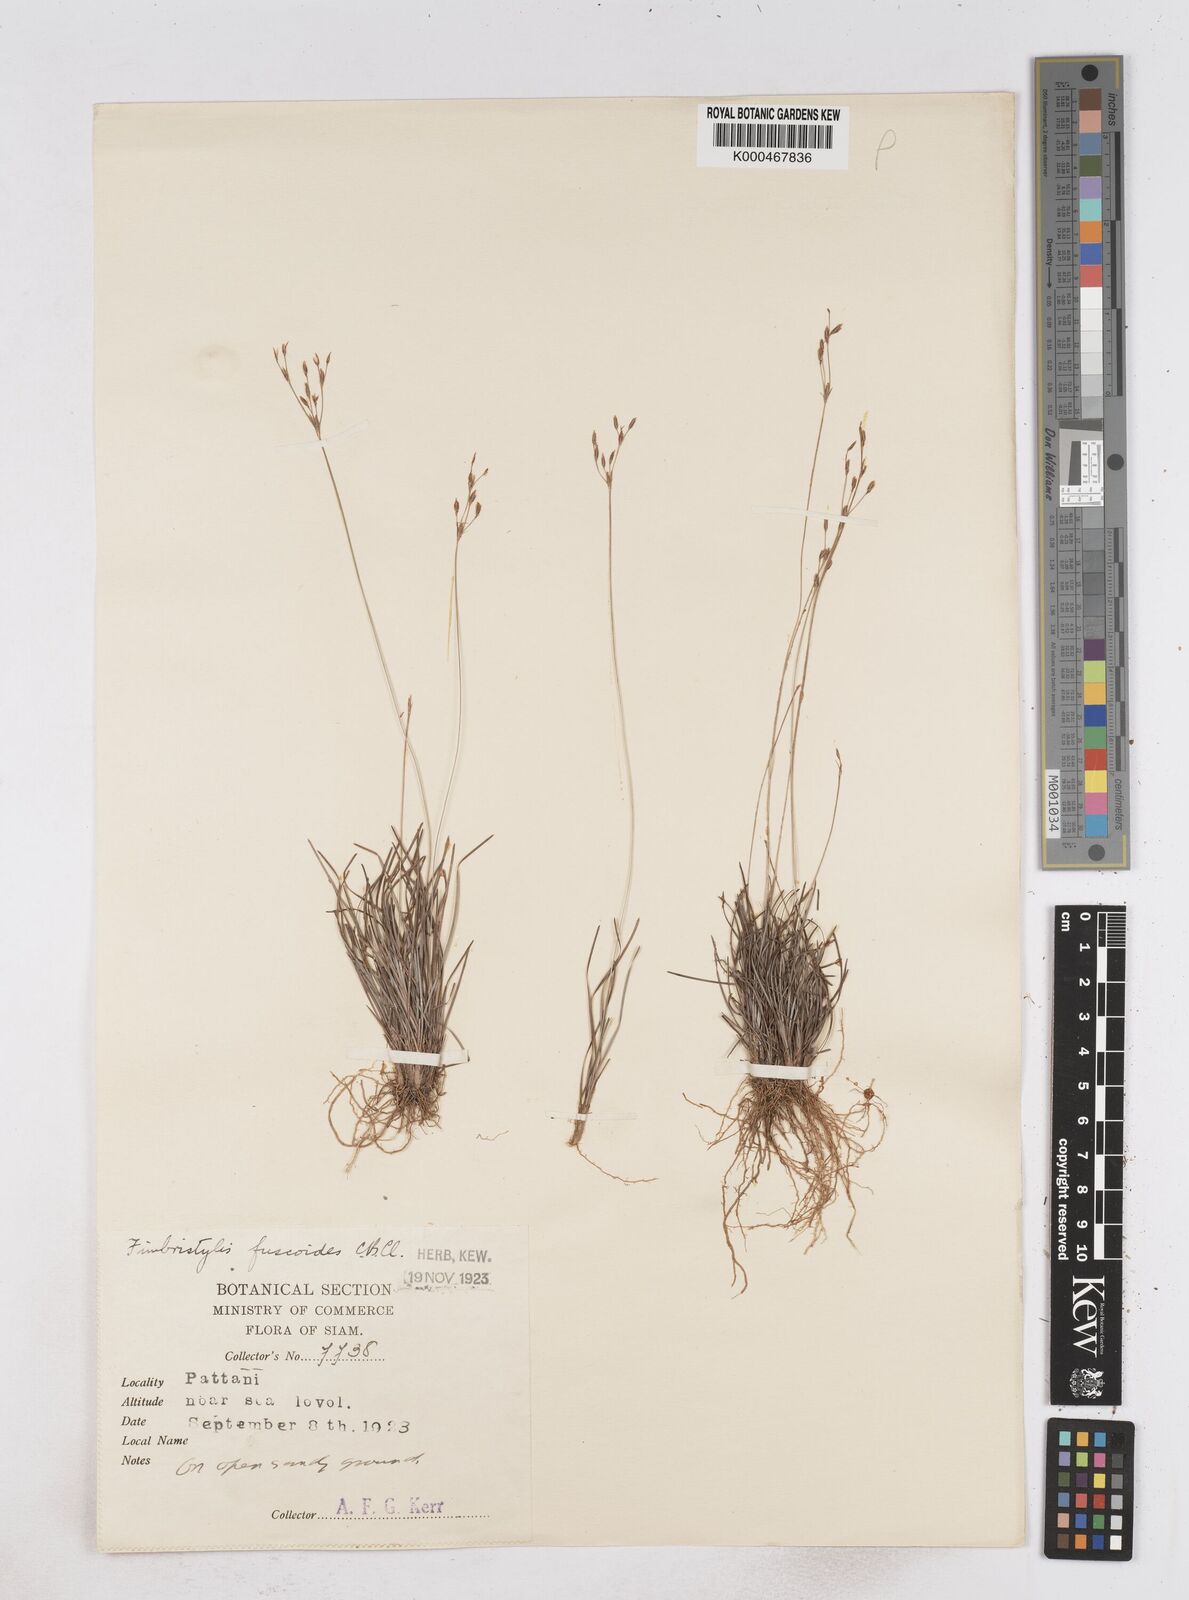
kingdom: Plantae
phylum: Tracheophyta
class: Liliopsida
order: Poales
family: Cyperaceae
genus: Fimbristylis
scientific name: Fimbristylis fuscoides
